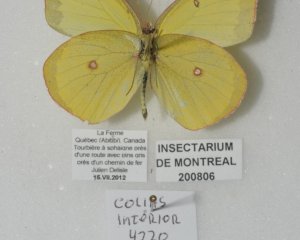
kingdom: Animalia
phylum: Arthropoda
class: Insecta
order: Lepidoptera
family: Pieridae
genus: Colias
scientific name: Colias interior
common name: Pink-edged Sulphur
